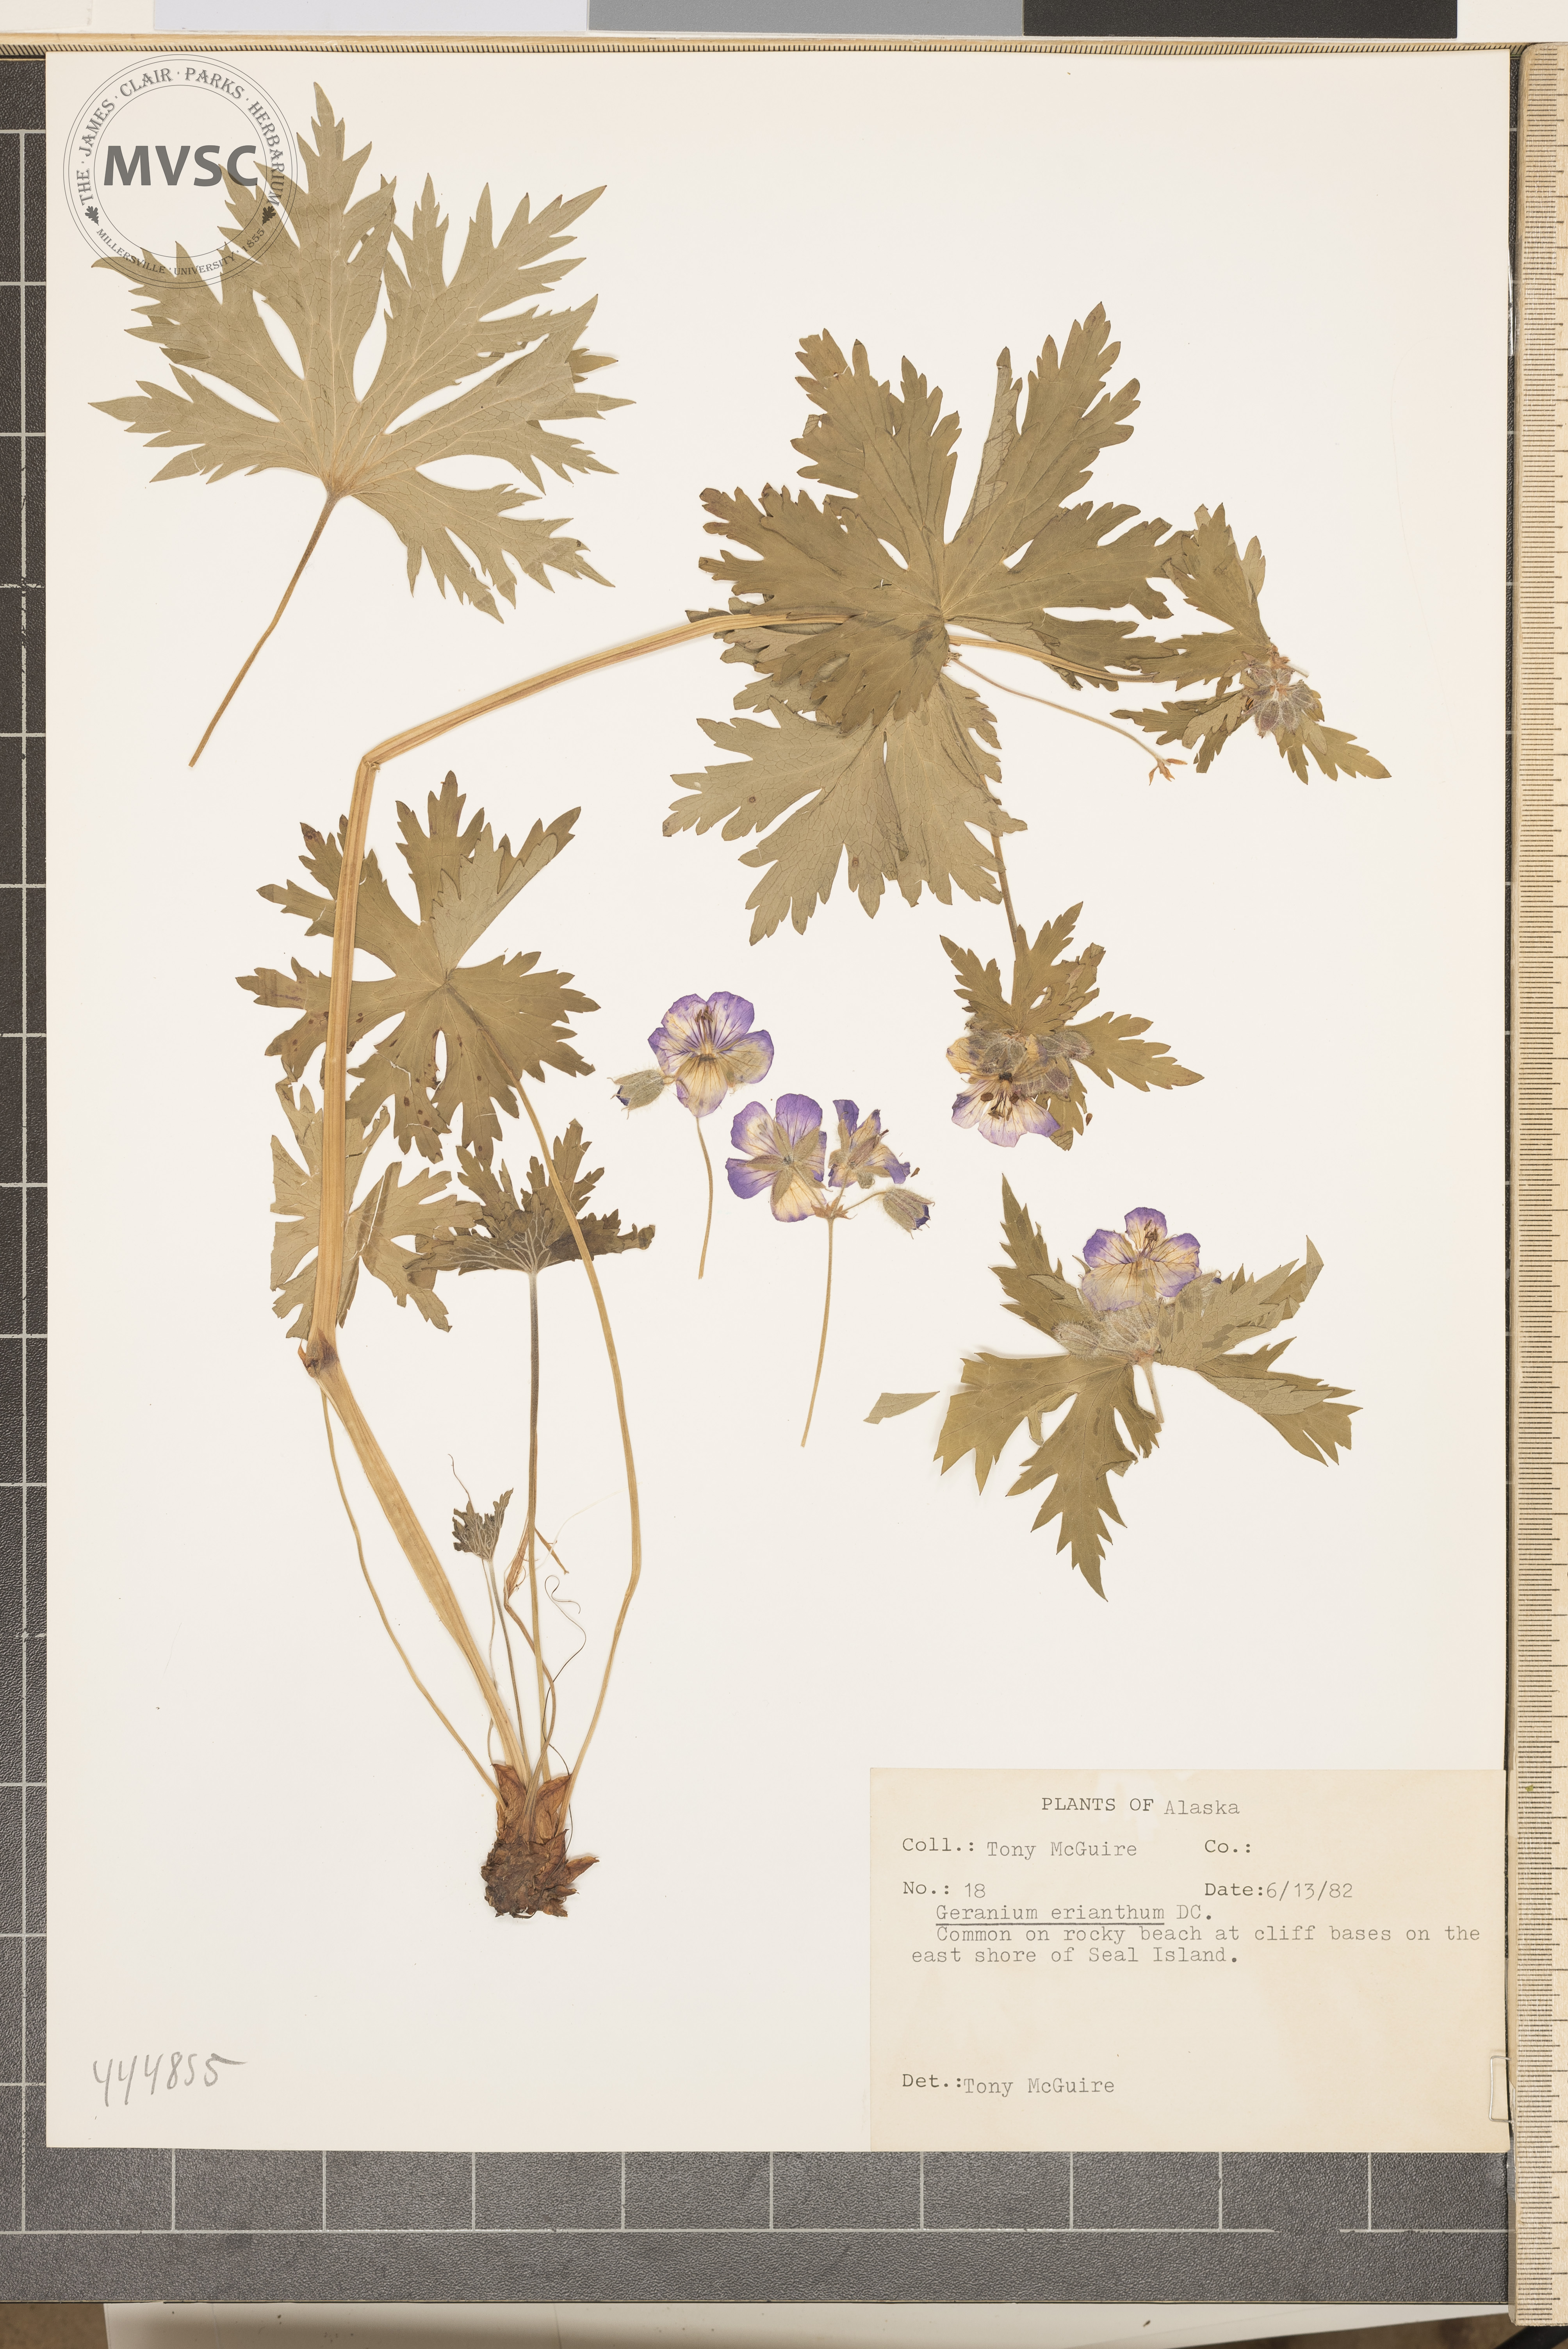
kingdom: Plantae
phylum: Tracheophyta
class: Magnoliopsida
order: Geraniales
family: Geraniaceae
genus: Geranium
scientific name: Geranium erianthum
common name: Northern crane's-bill
